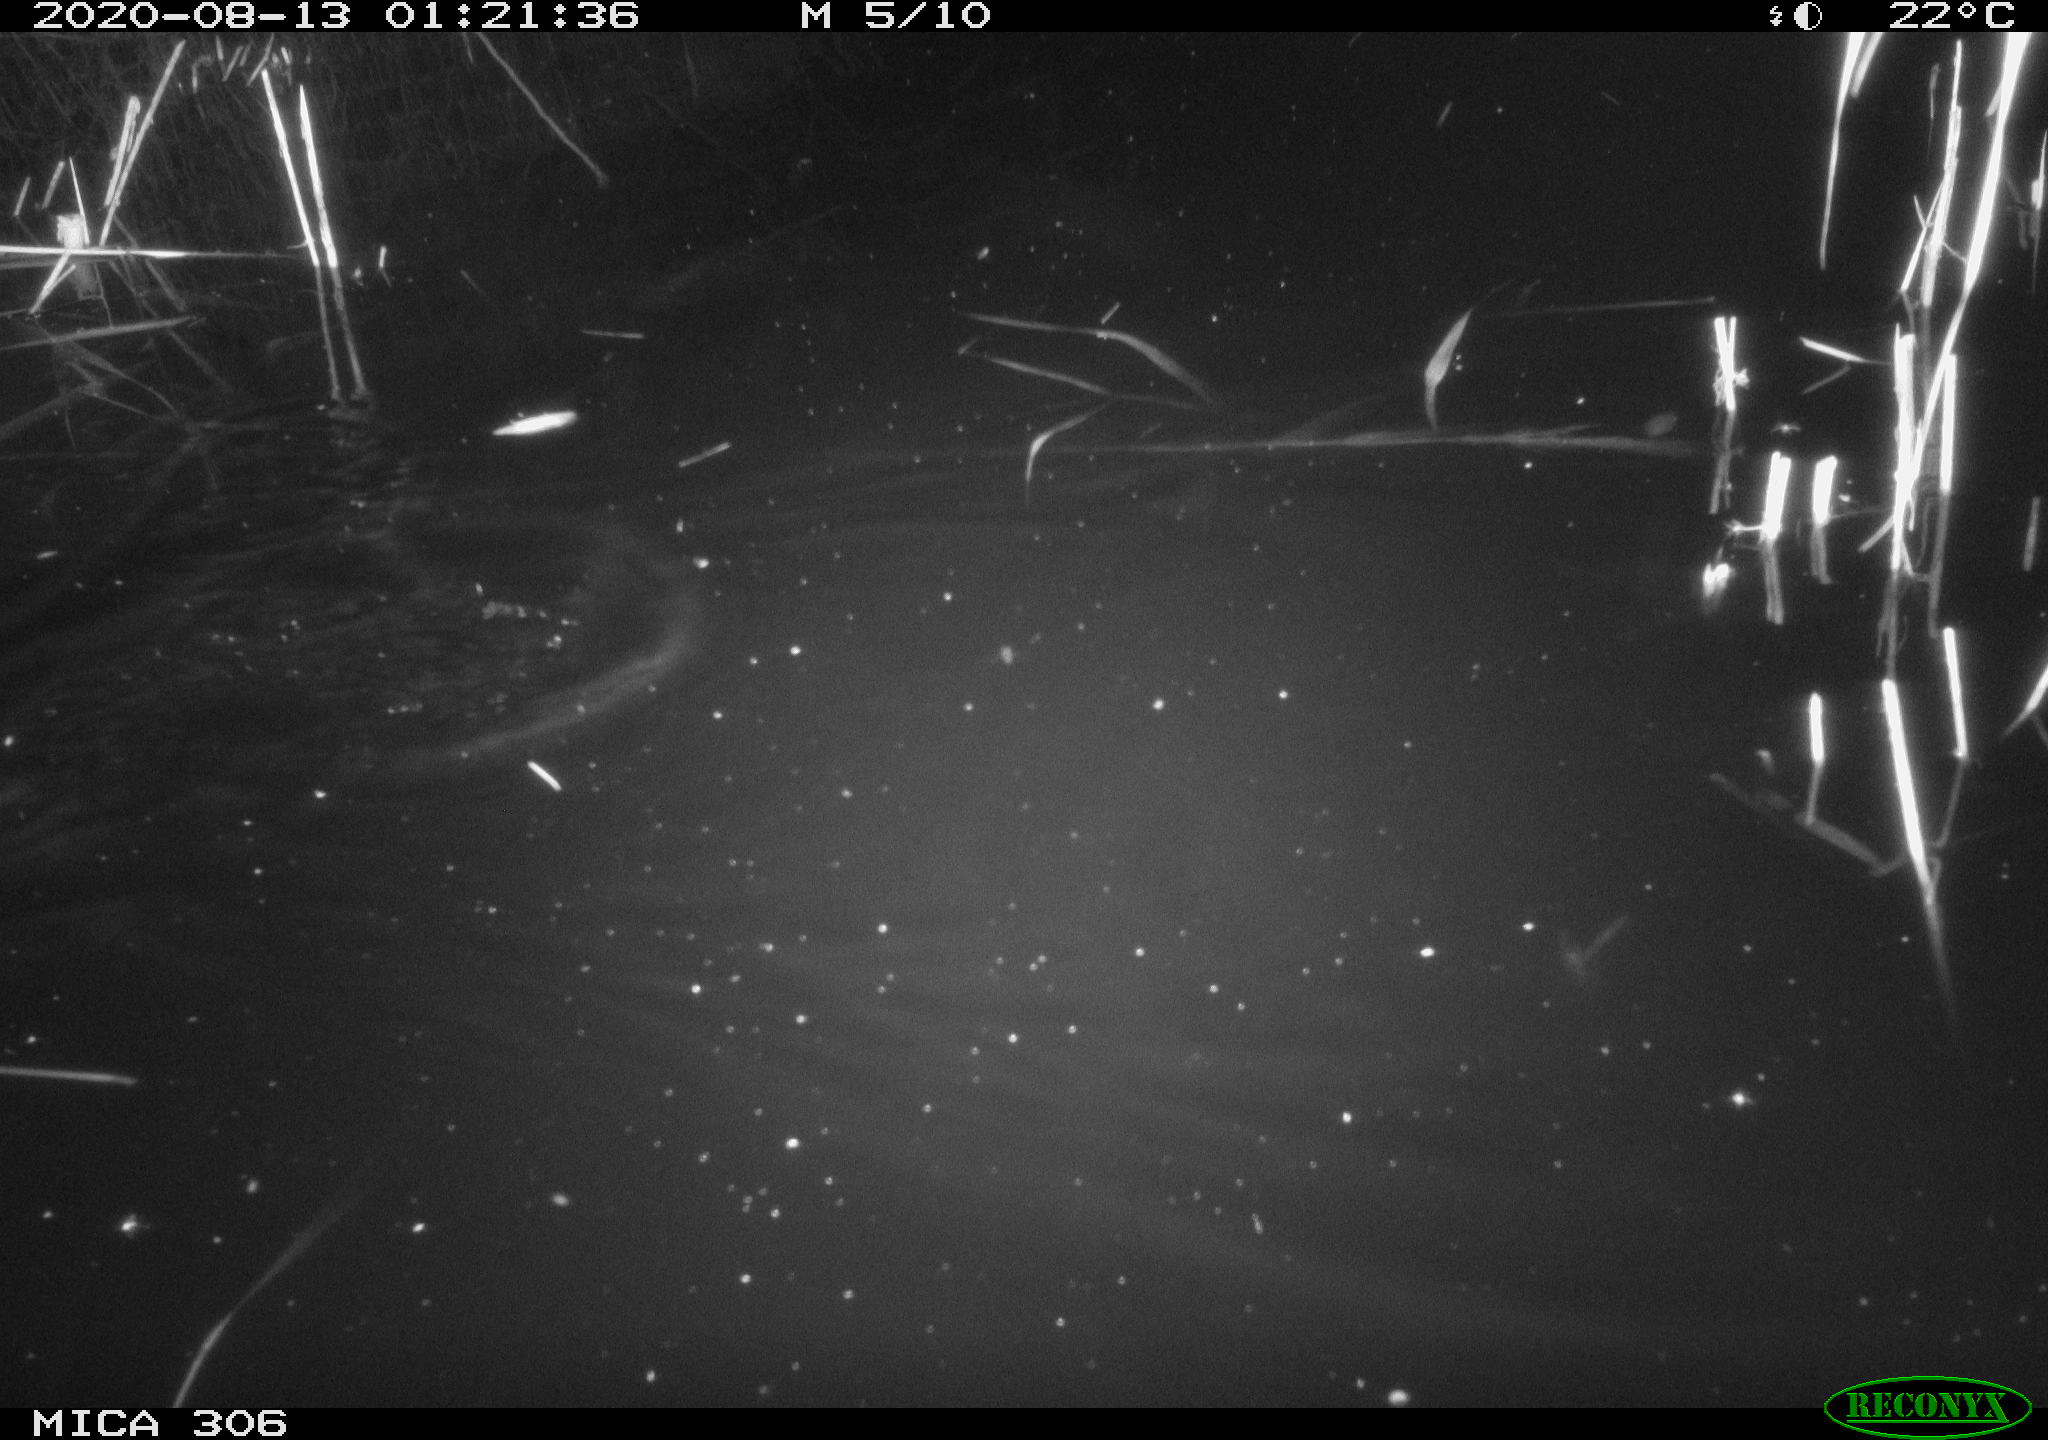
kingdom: Animalia
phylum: Chordata
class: Mammalia
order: Rodentia
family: Muridae
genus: Rattus
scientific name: Rattus norvegicus
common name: Brown rat
